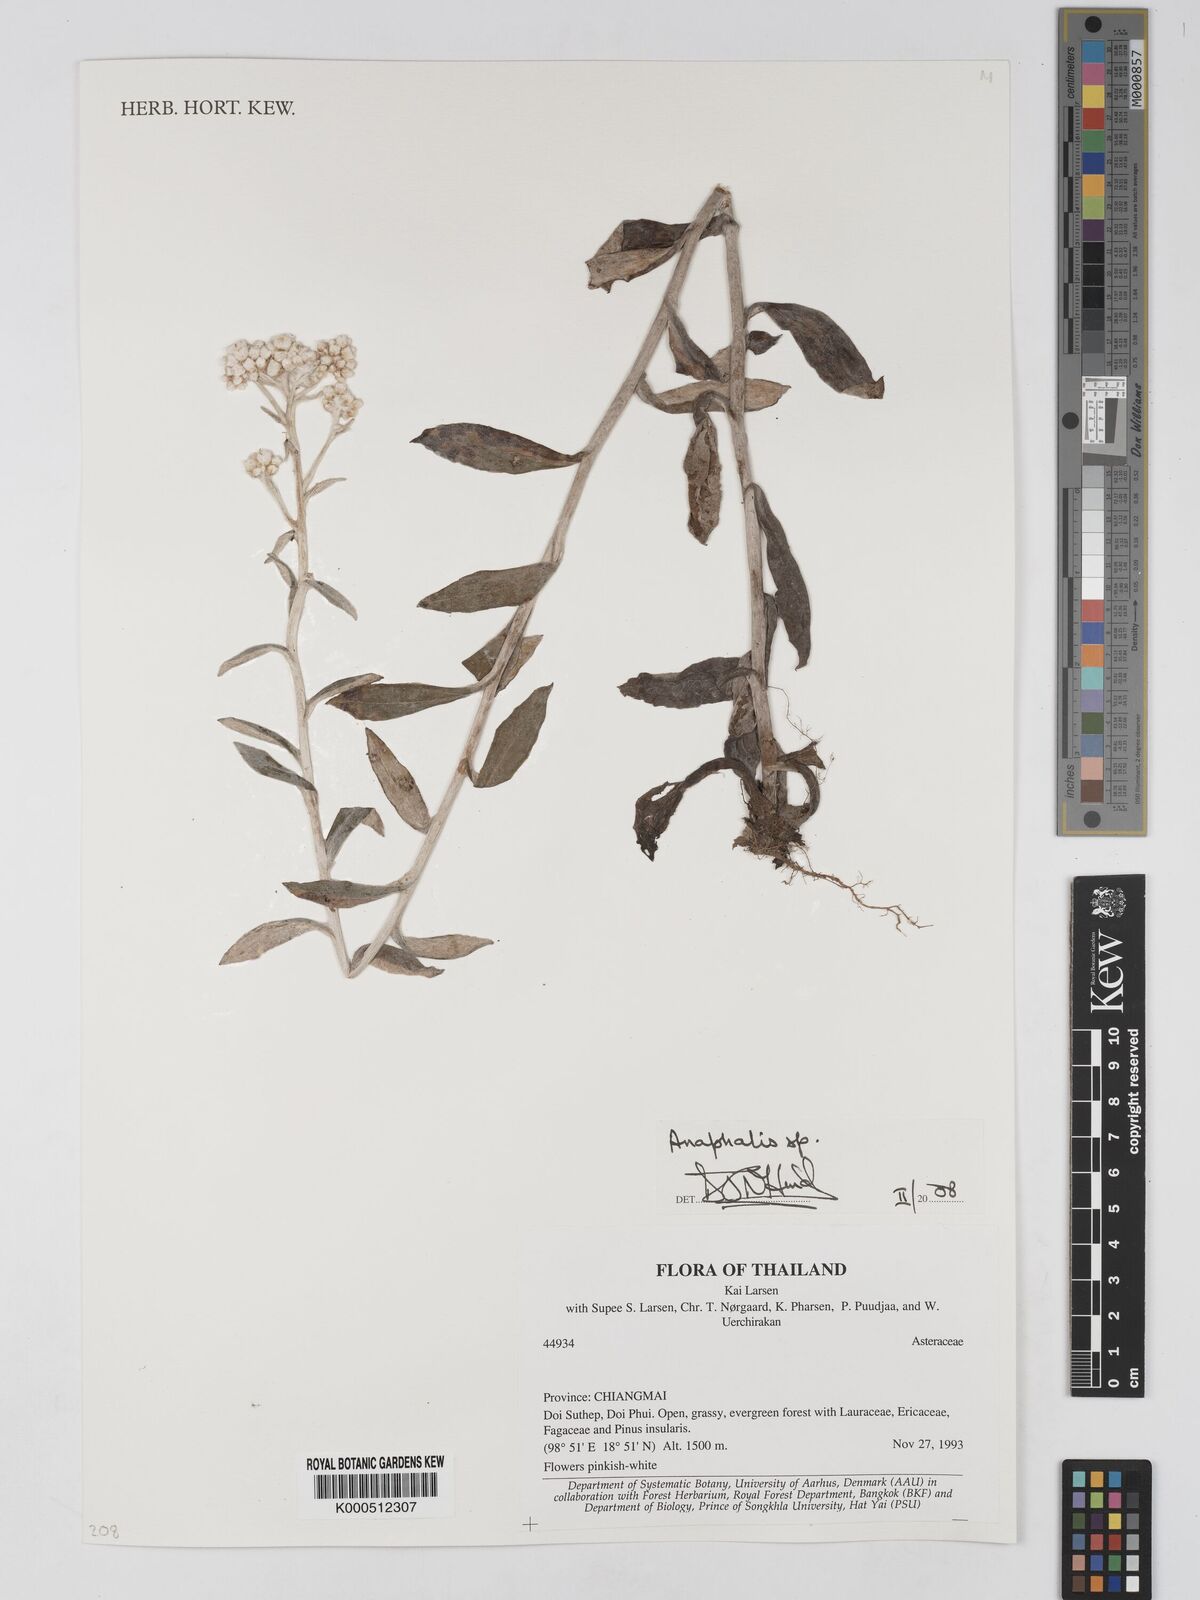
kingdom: Plantae
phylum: Tracheophyta
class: Magnoliopsida
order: Asterales
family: Asteraceae
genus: Anaphalis
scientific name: Anaphalis
